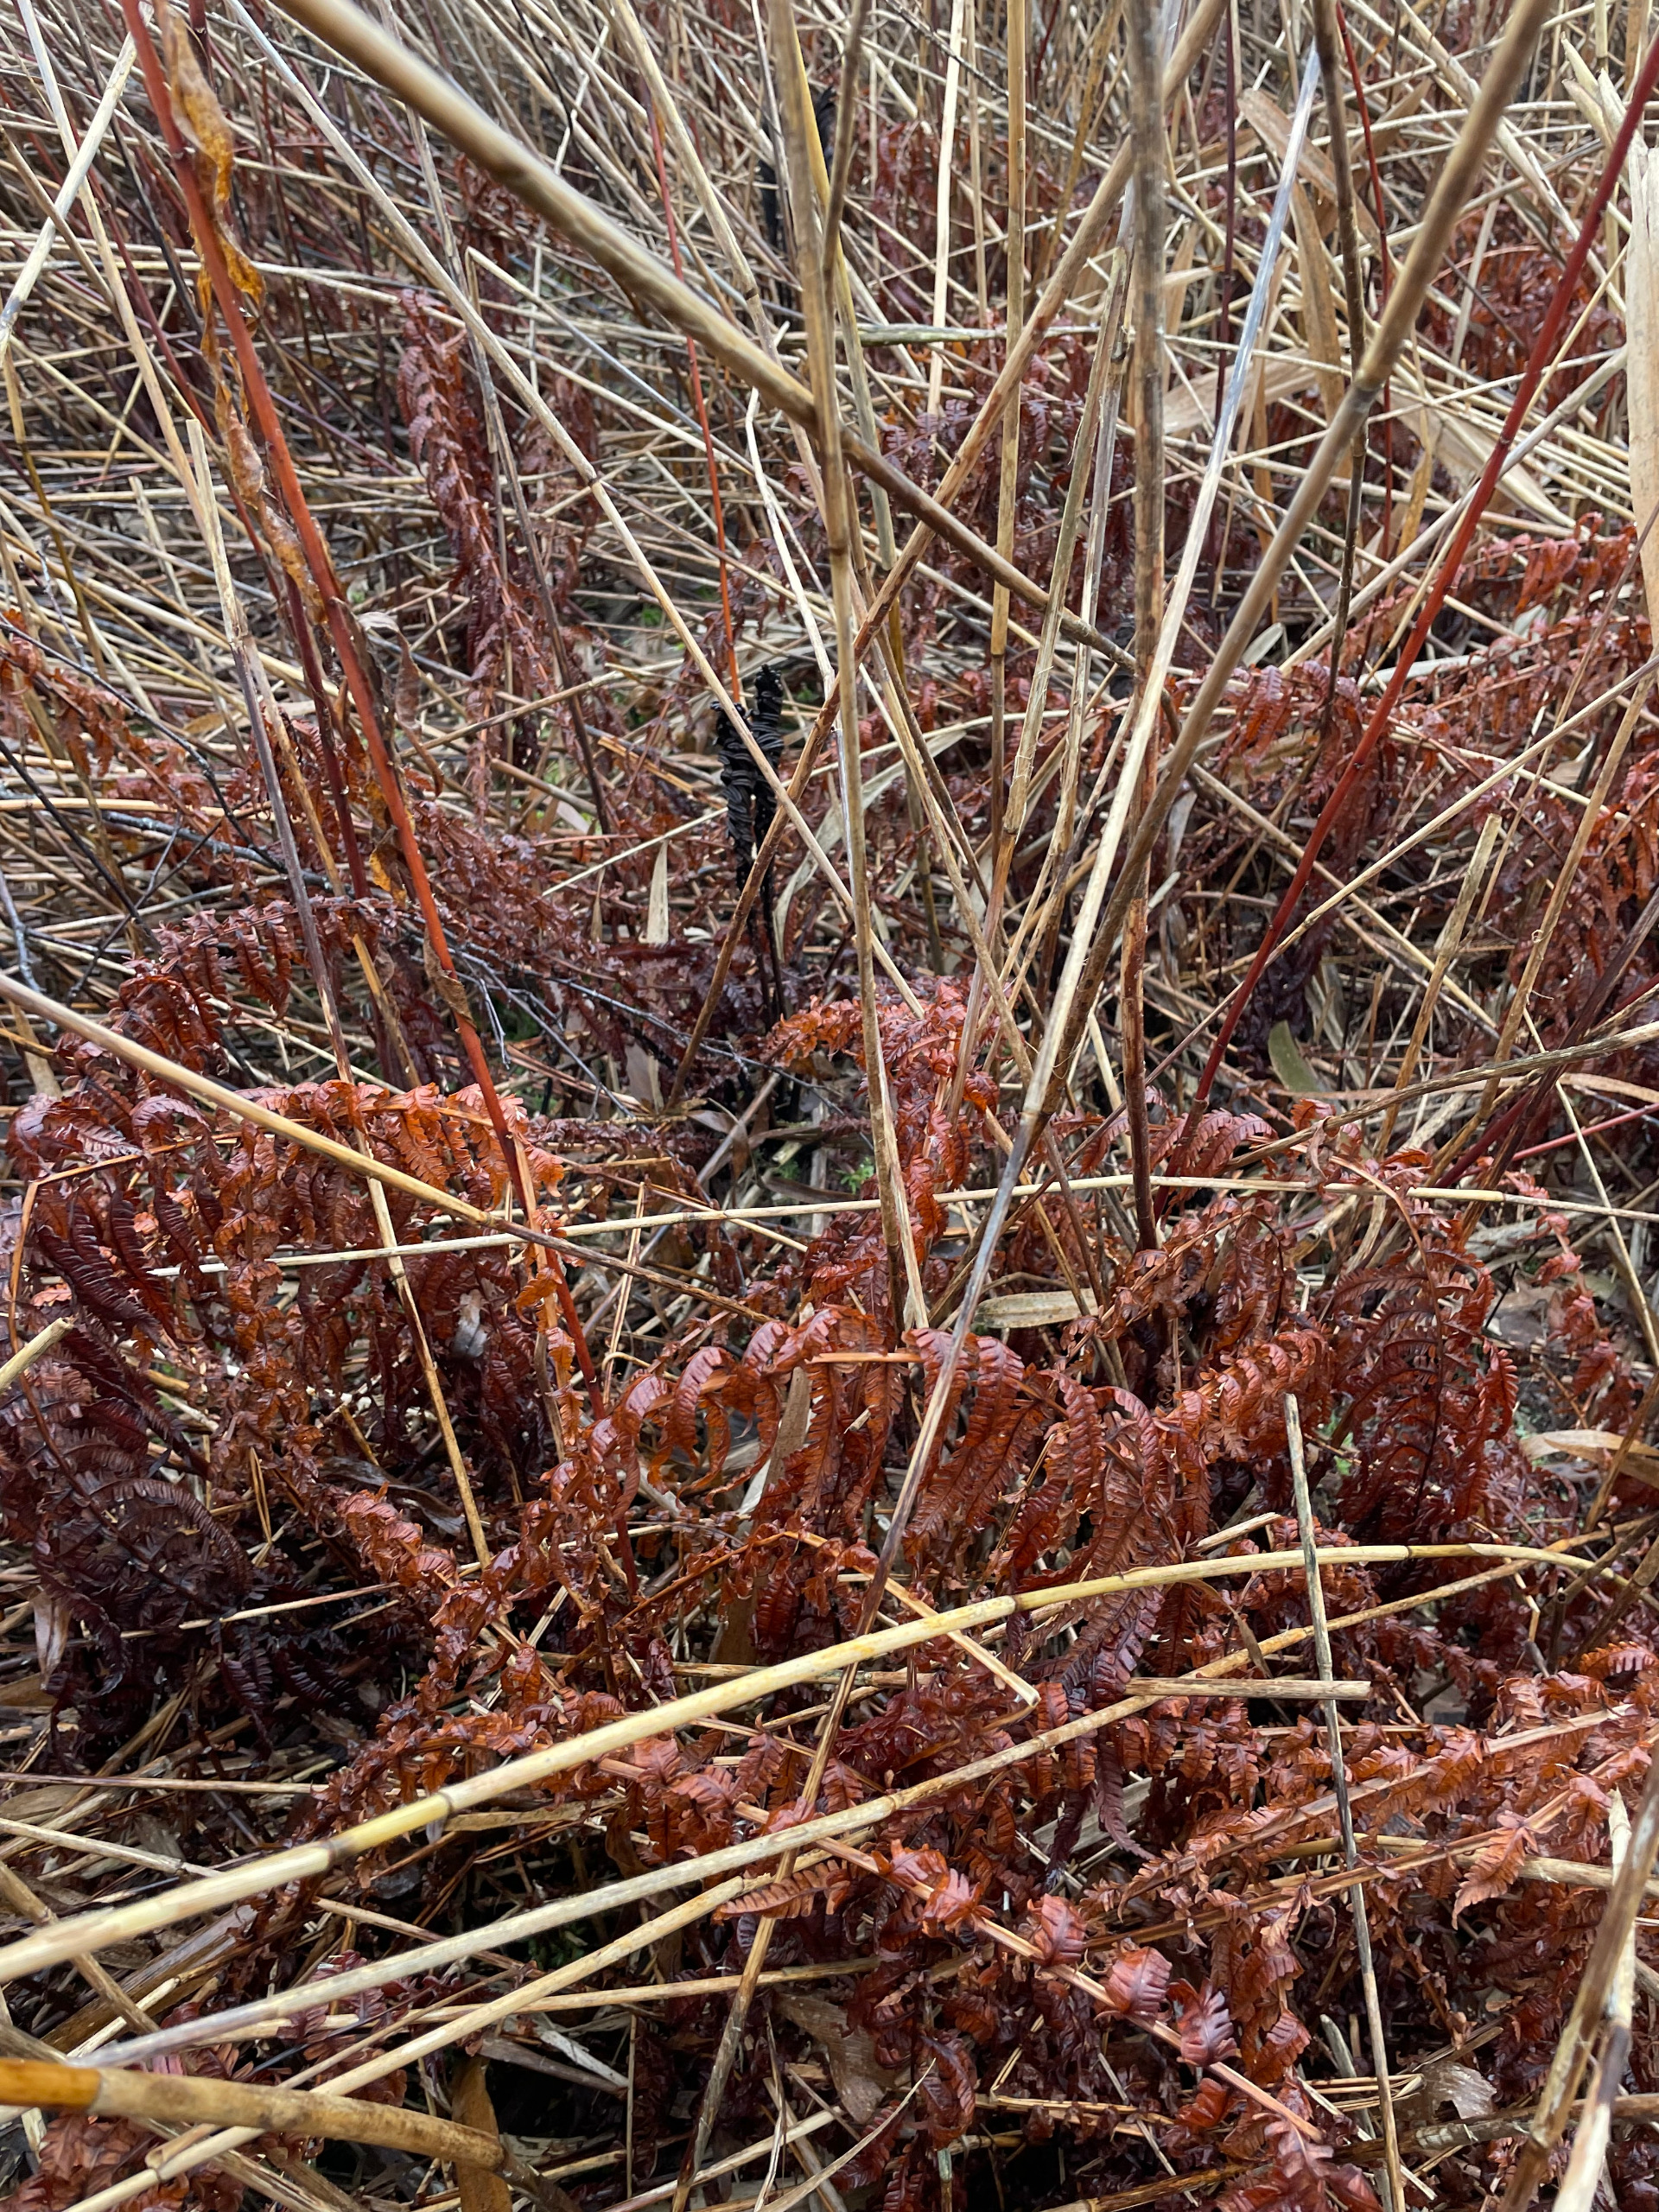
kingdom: Plantae
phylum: Tracheophyta
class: Polypodiopsida
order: Polypodiales
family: Onocleaceae
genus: Matteuccia
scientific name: Matteuccia struthiopteris
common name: Strudsvinge
